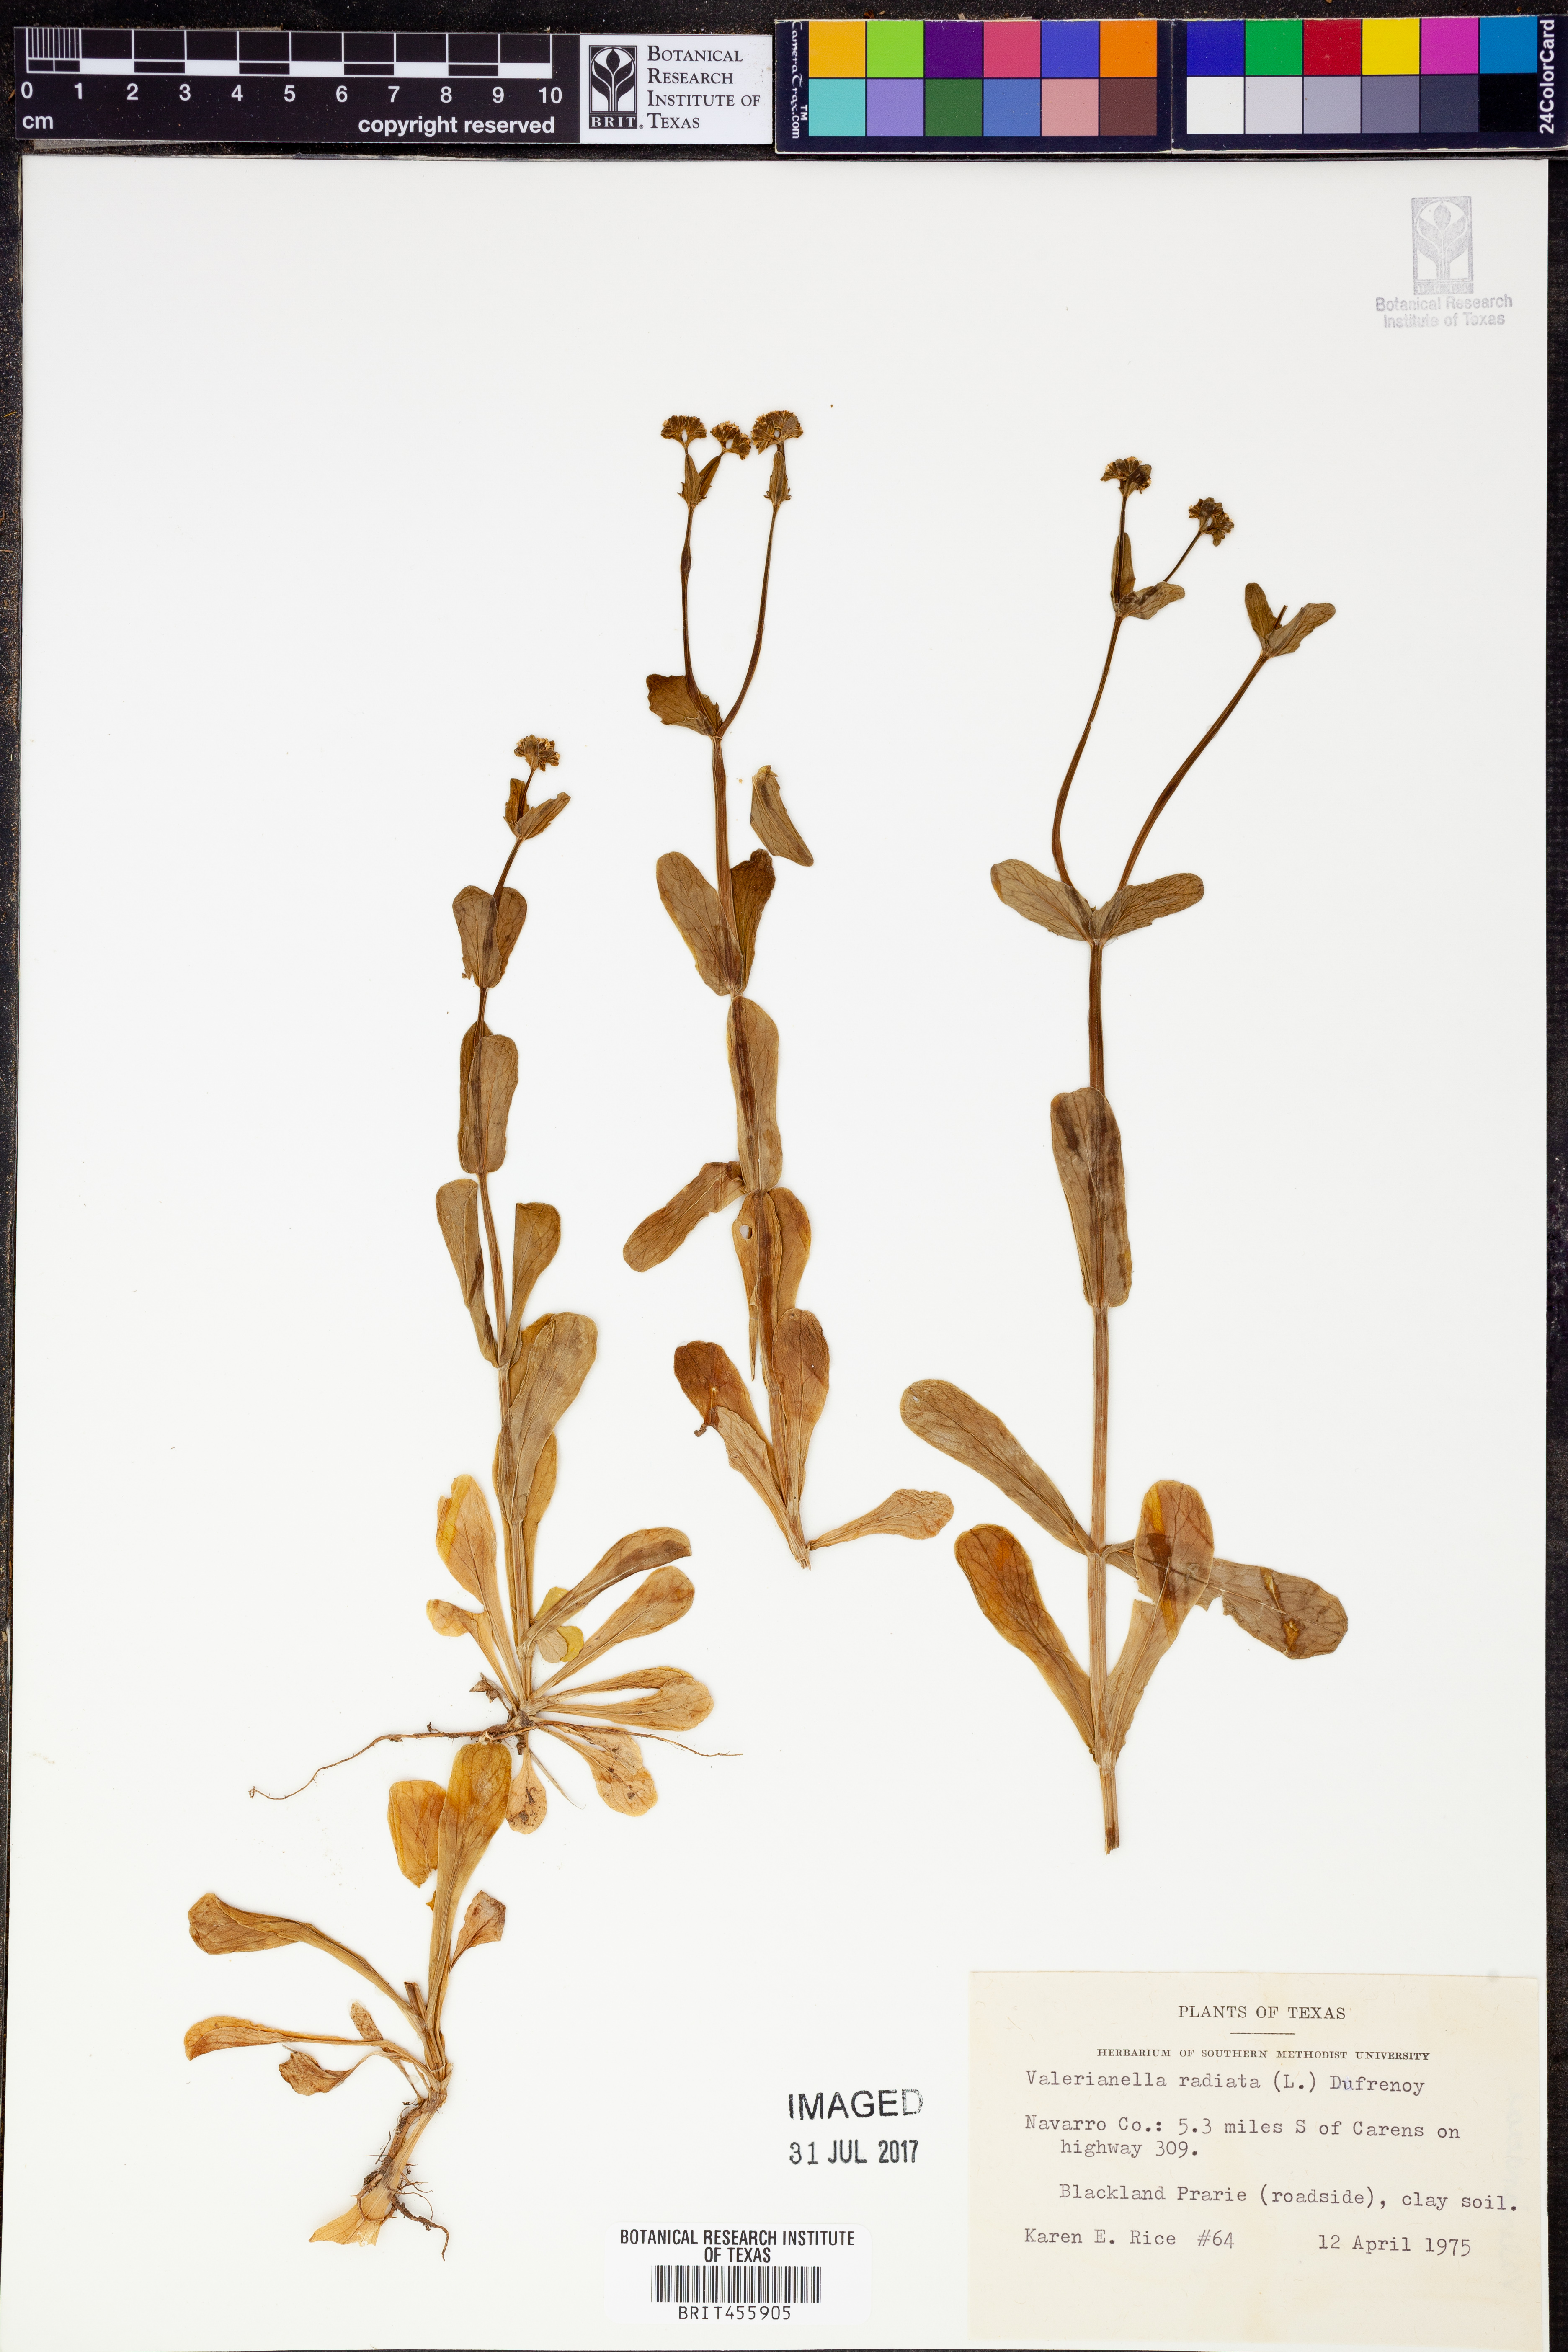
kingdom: Plantae
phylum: Tracheophyta
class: Magnoliopsida
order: Dipsacales
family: Caprifoliaceae
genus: Valerianella
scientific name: Valerianella radiata
